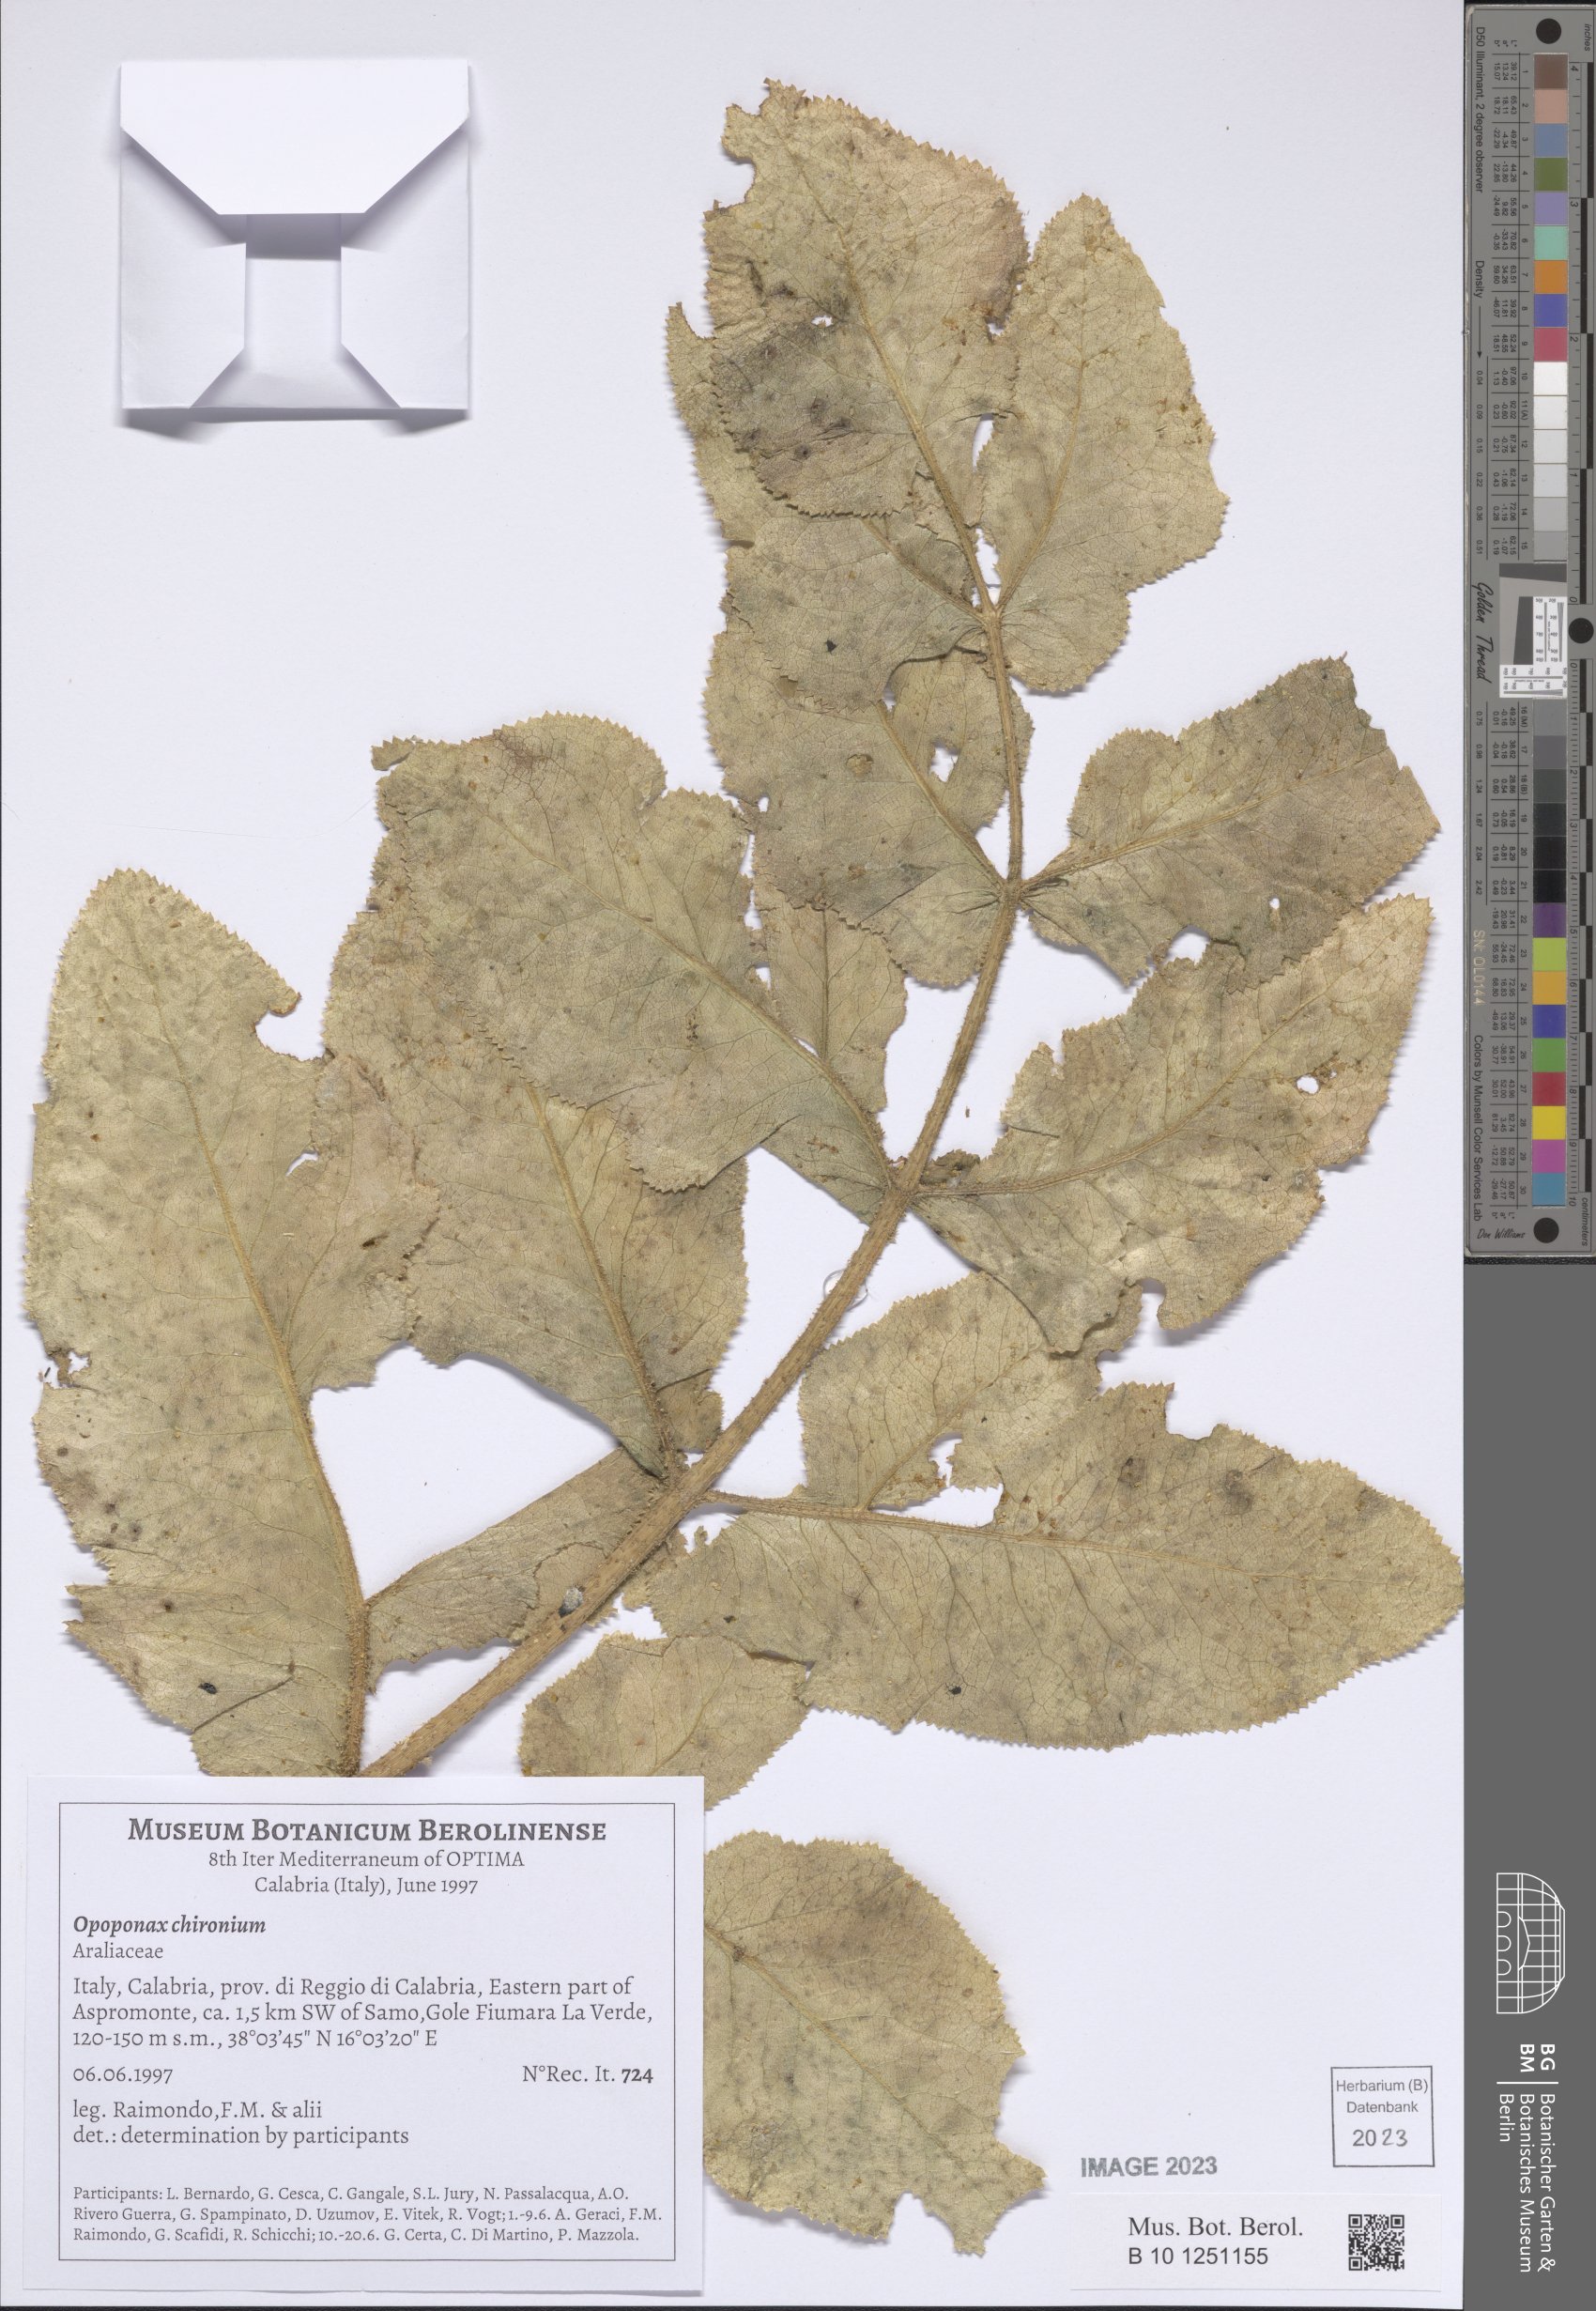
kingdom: Plantae
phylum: Tracheophyta
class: Magnoliopsida
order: Apiales
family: Apiaceae
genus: Opopanax
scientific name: Opopanax chironium
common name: Hercules-all-heal
